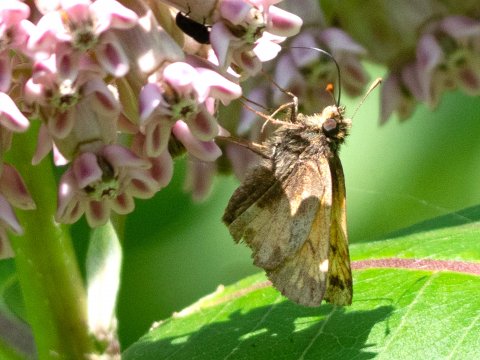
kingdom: Animalia
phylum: Arthropoda
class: Insecta
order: Lepidoptera
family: Hesperiidae
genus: Lon
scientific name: Lon hobomok
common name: Hobomok Skipper
